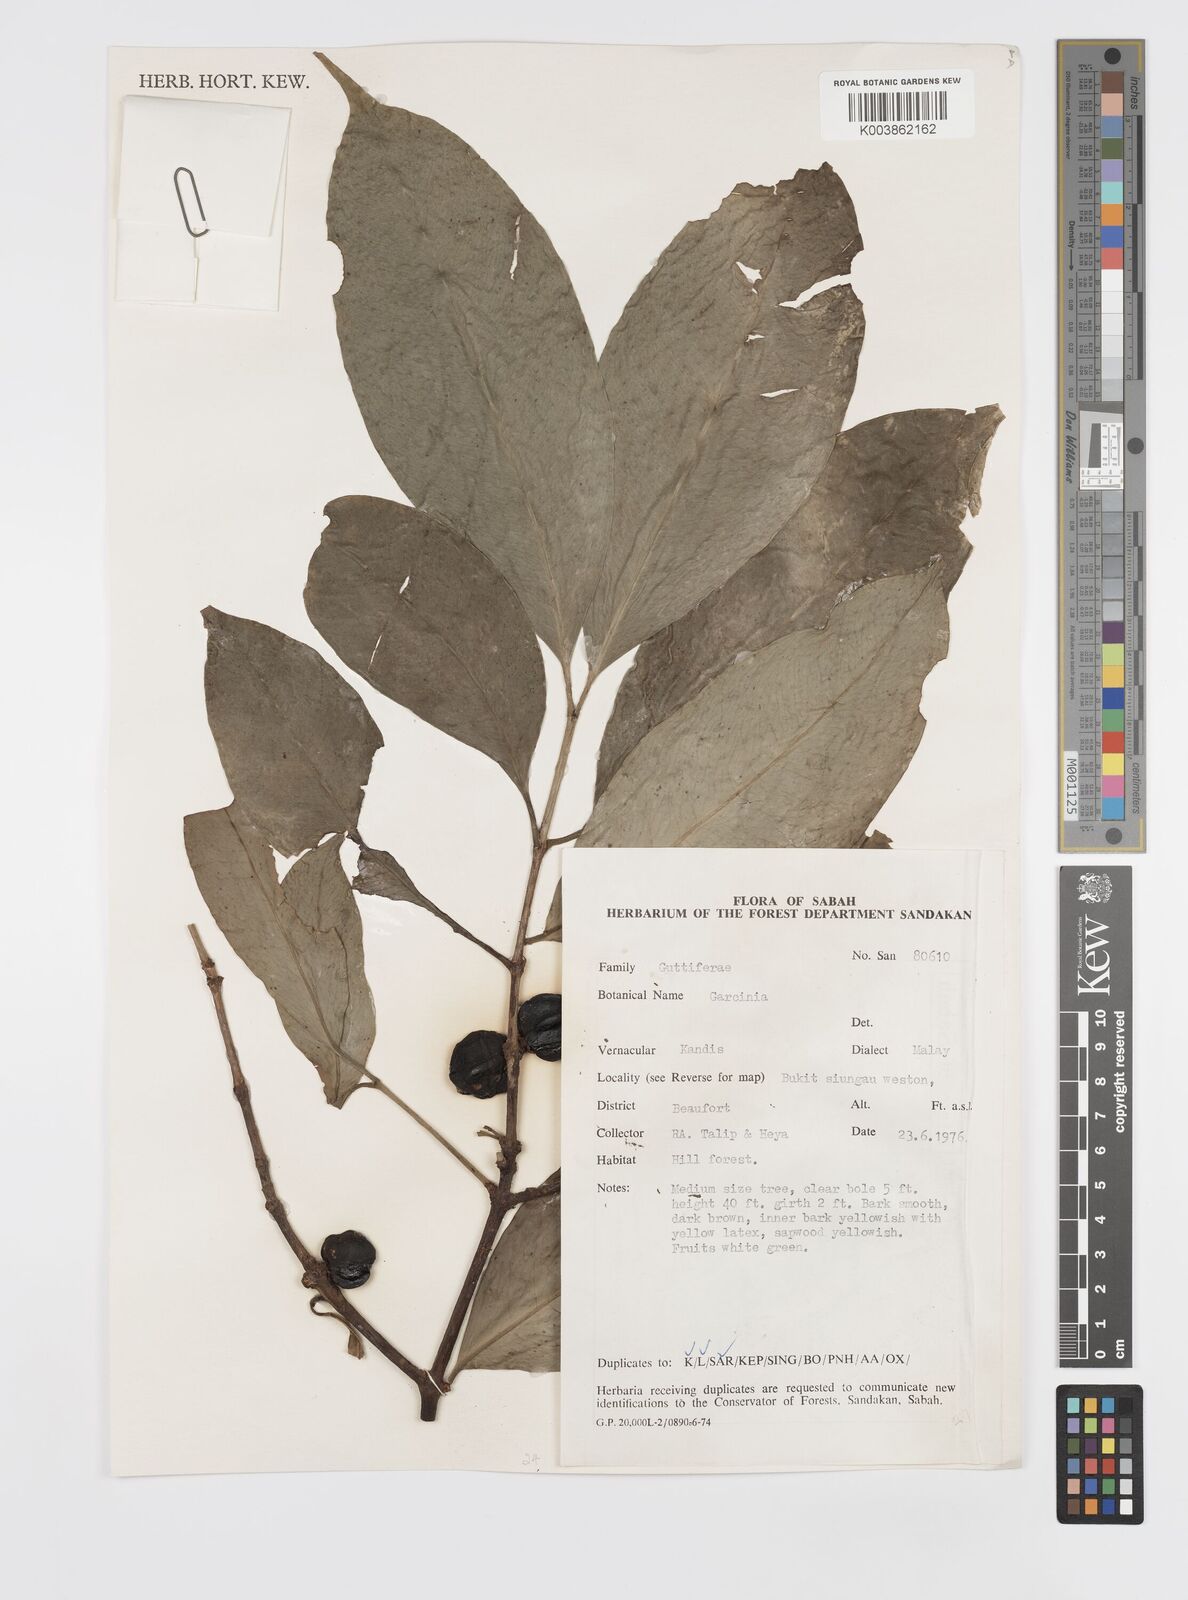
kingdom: Plantae
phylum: Tracheophyta
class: Magnoliopsida
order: Malpighiales
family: Clusiaceae
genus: Garcinia
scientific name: Garcinia
